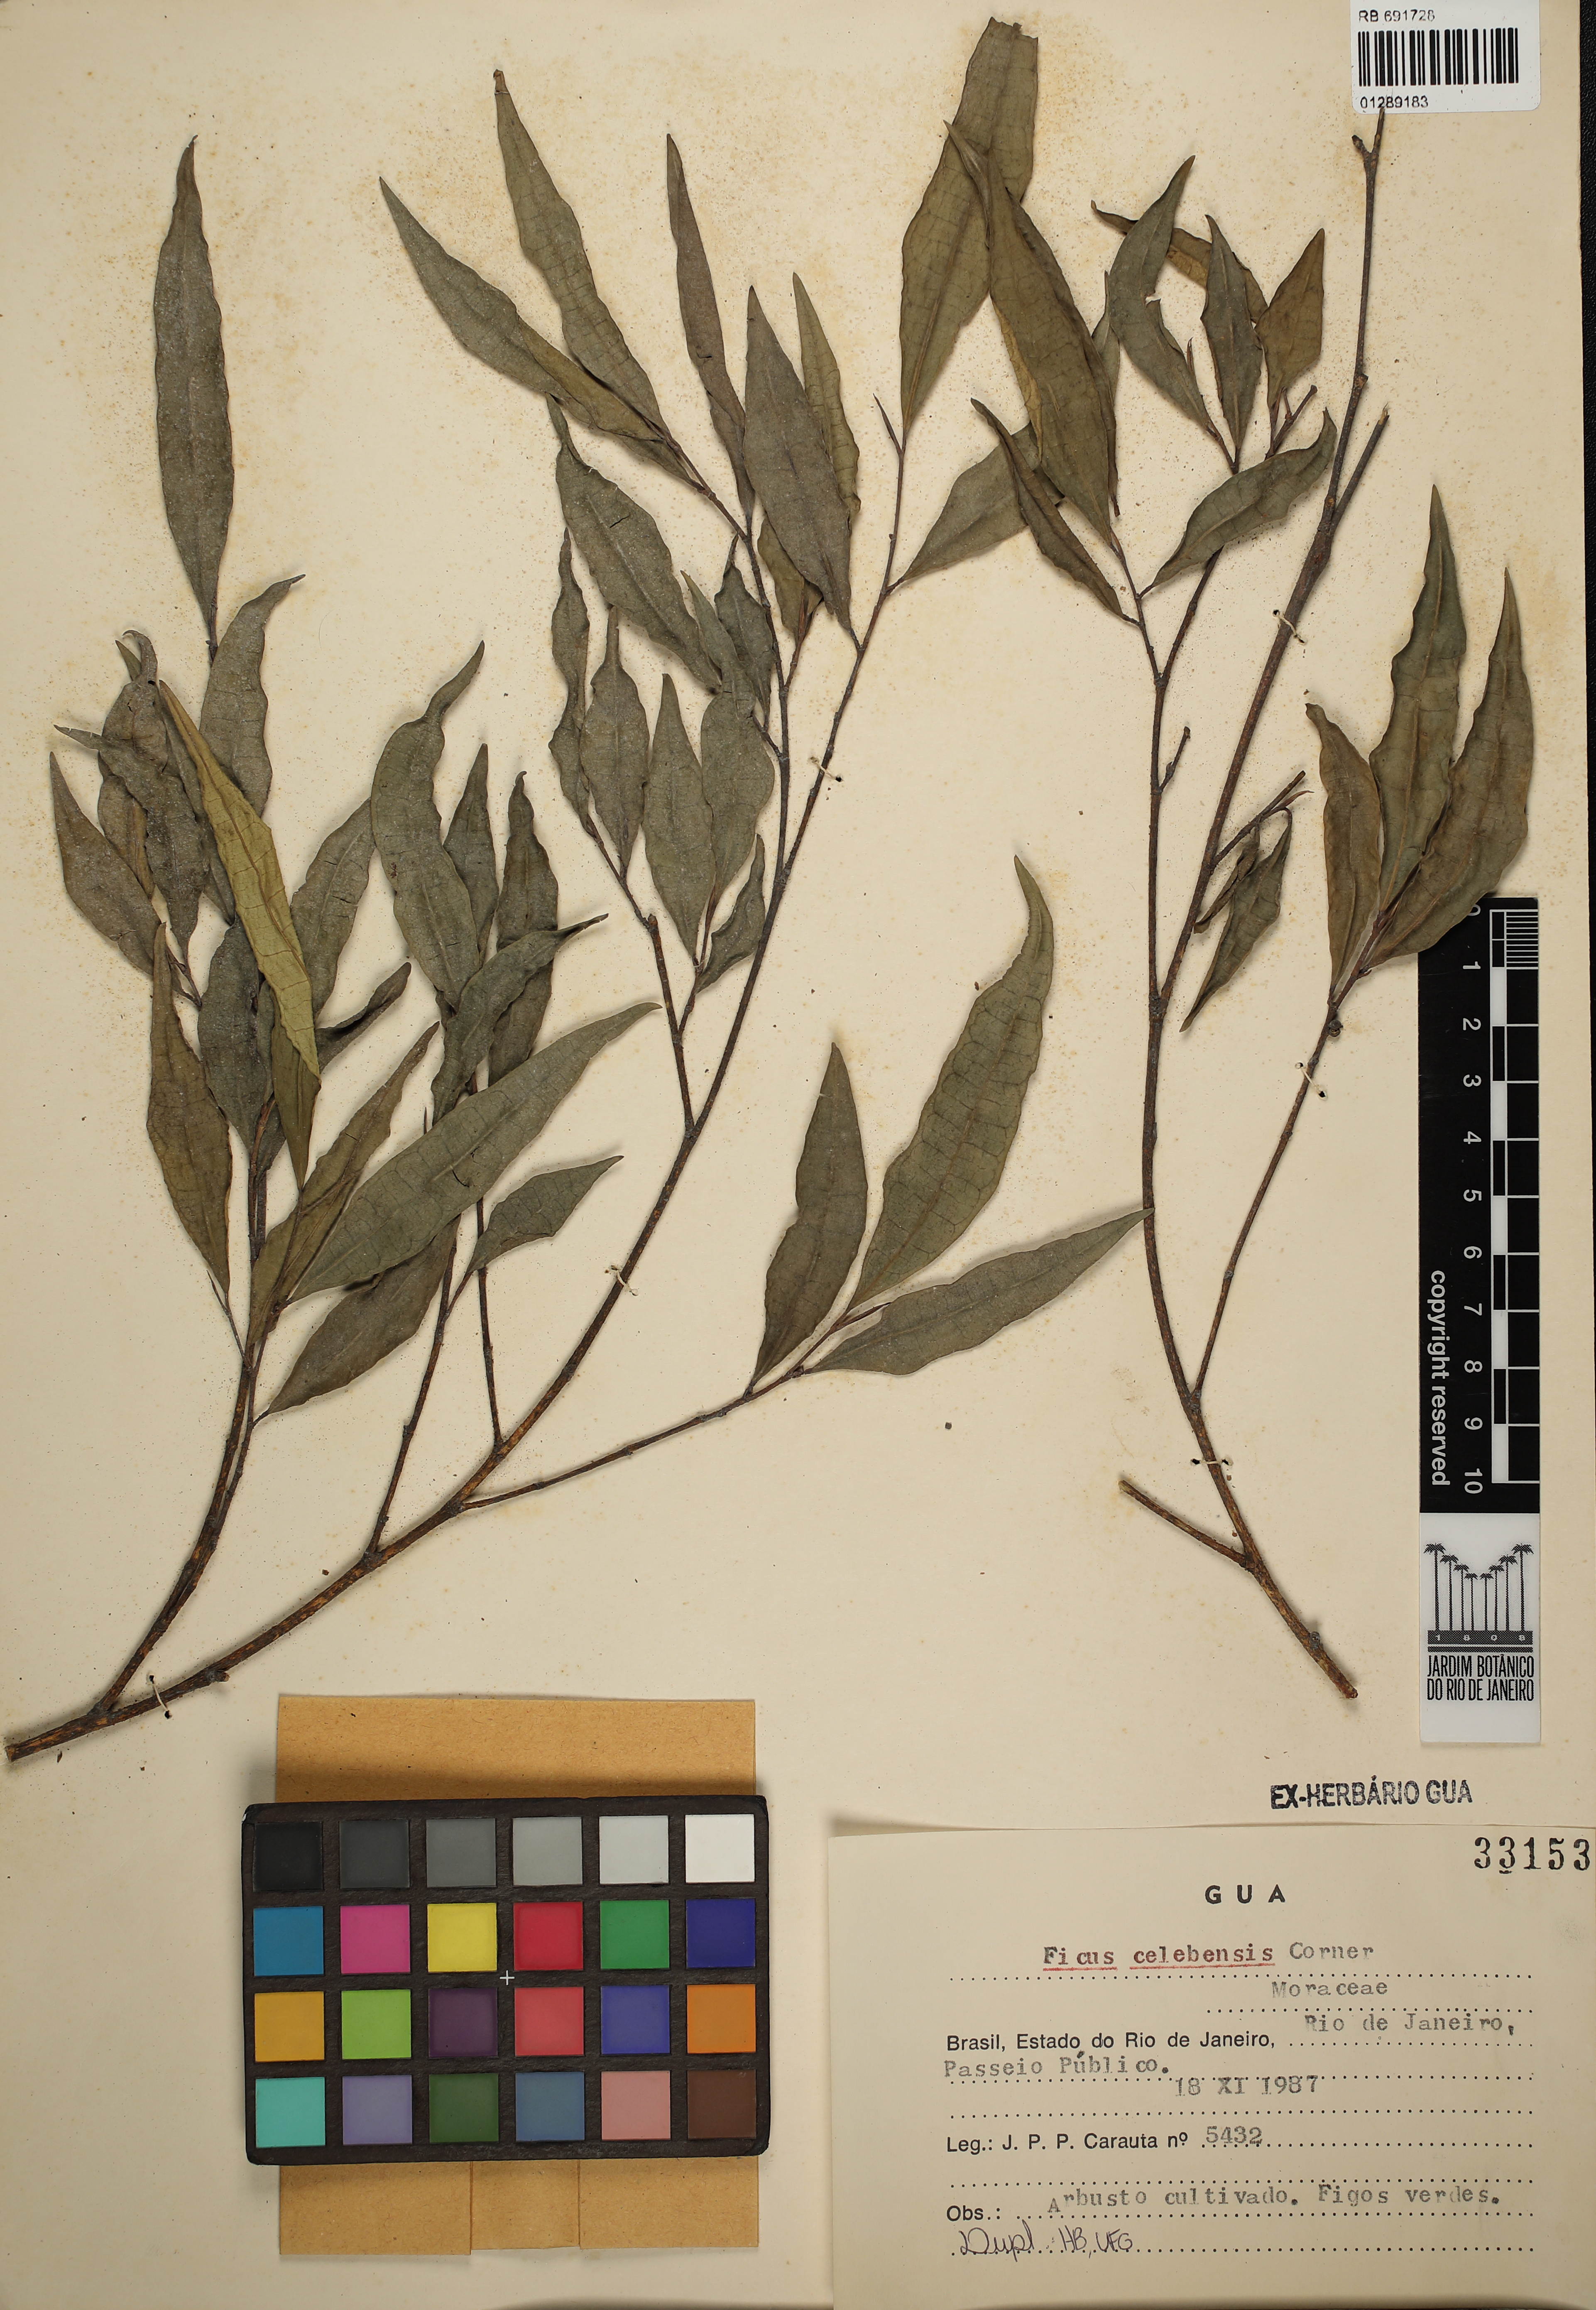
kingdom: Plantae
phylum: Tracheophyta
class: Magnoliopsida
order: Rosales
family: Moraceae
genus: Ficus
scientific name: Ficus celebensis
